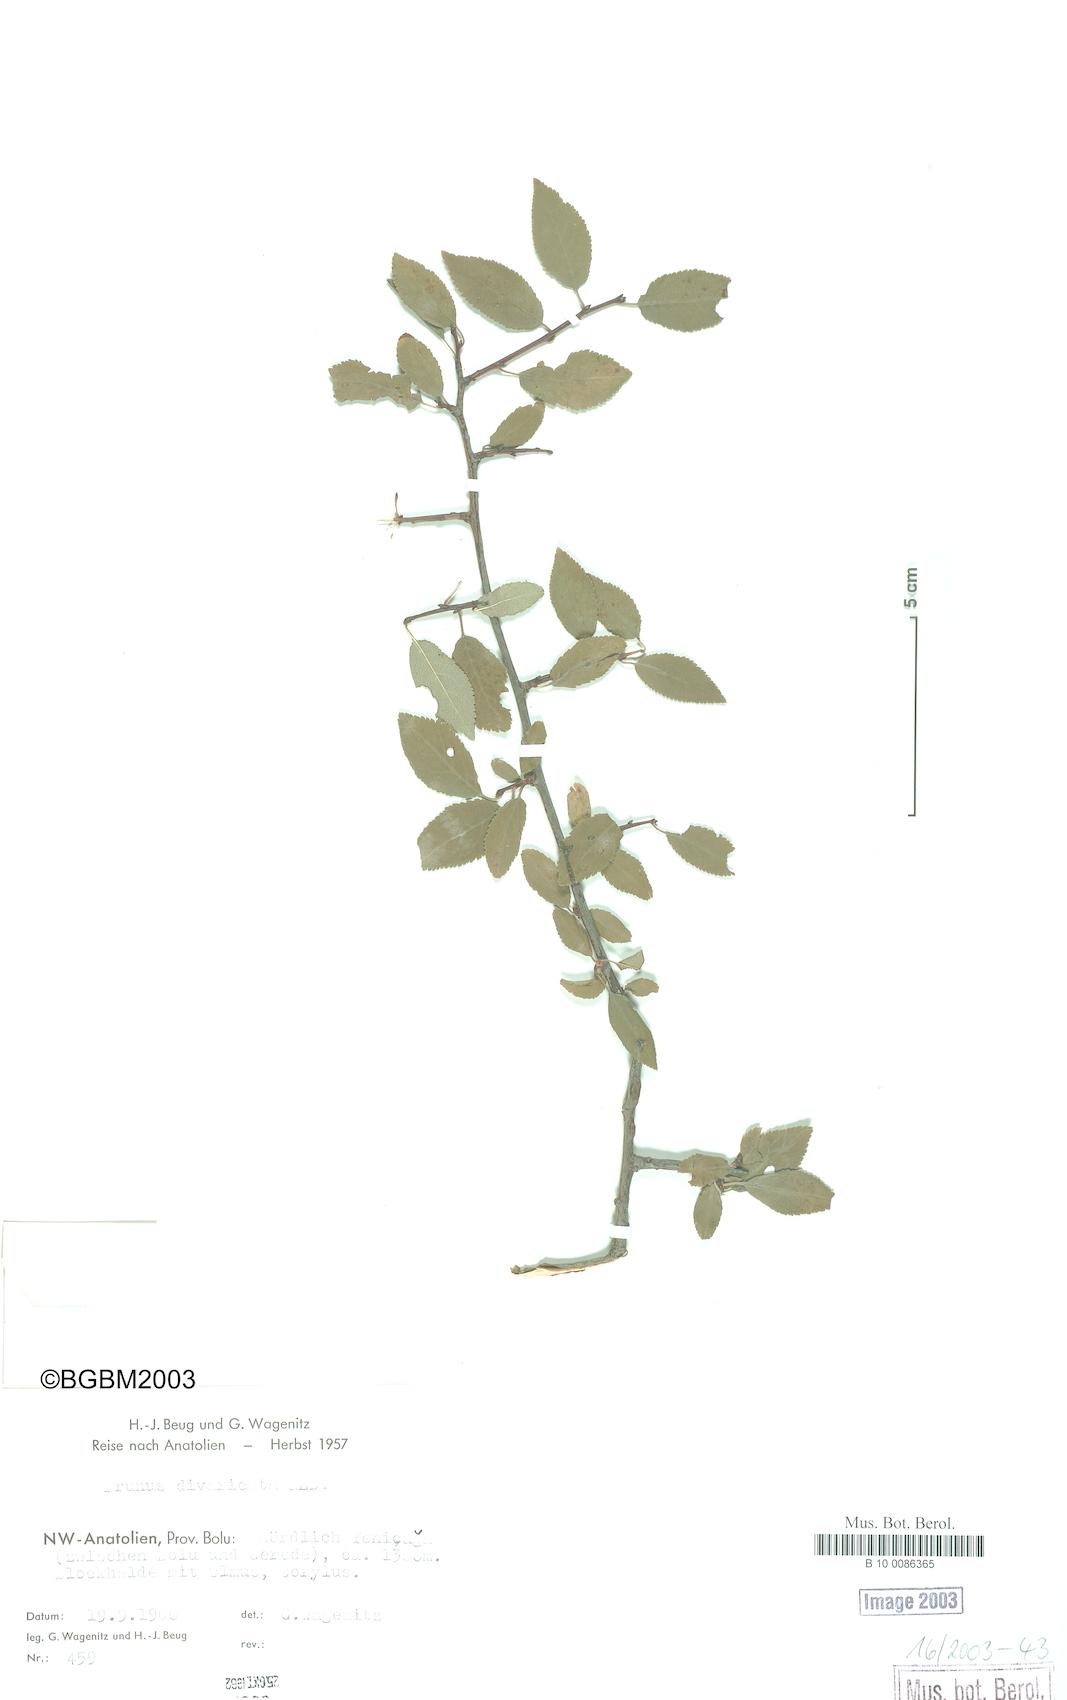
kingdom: Plantae
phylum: Tracheophyta
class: Magnoliopsida
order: Rosales
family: Rosaceae
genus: Prunus
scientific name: Prunus cerasifera
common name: Cherry plum
